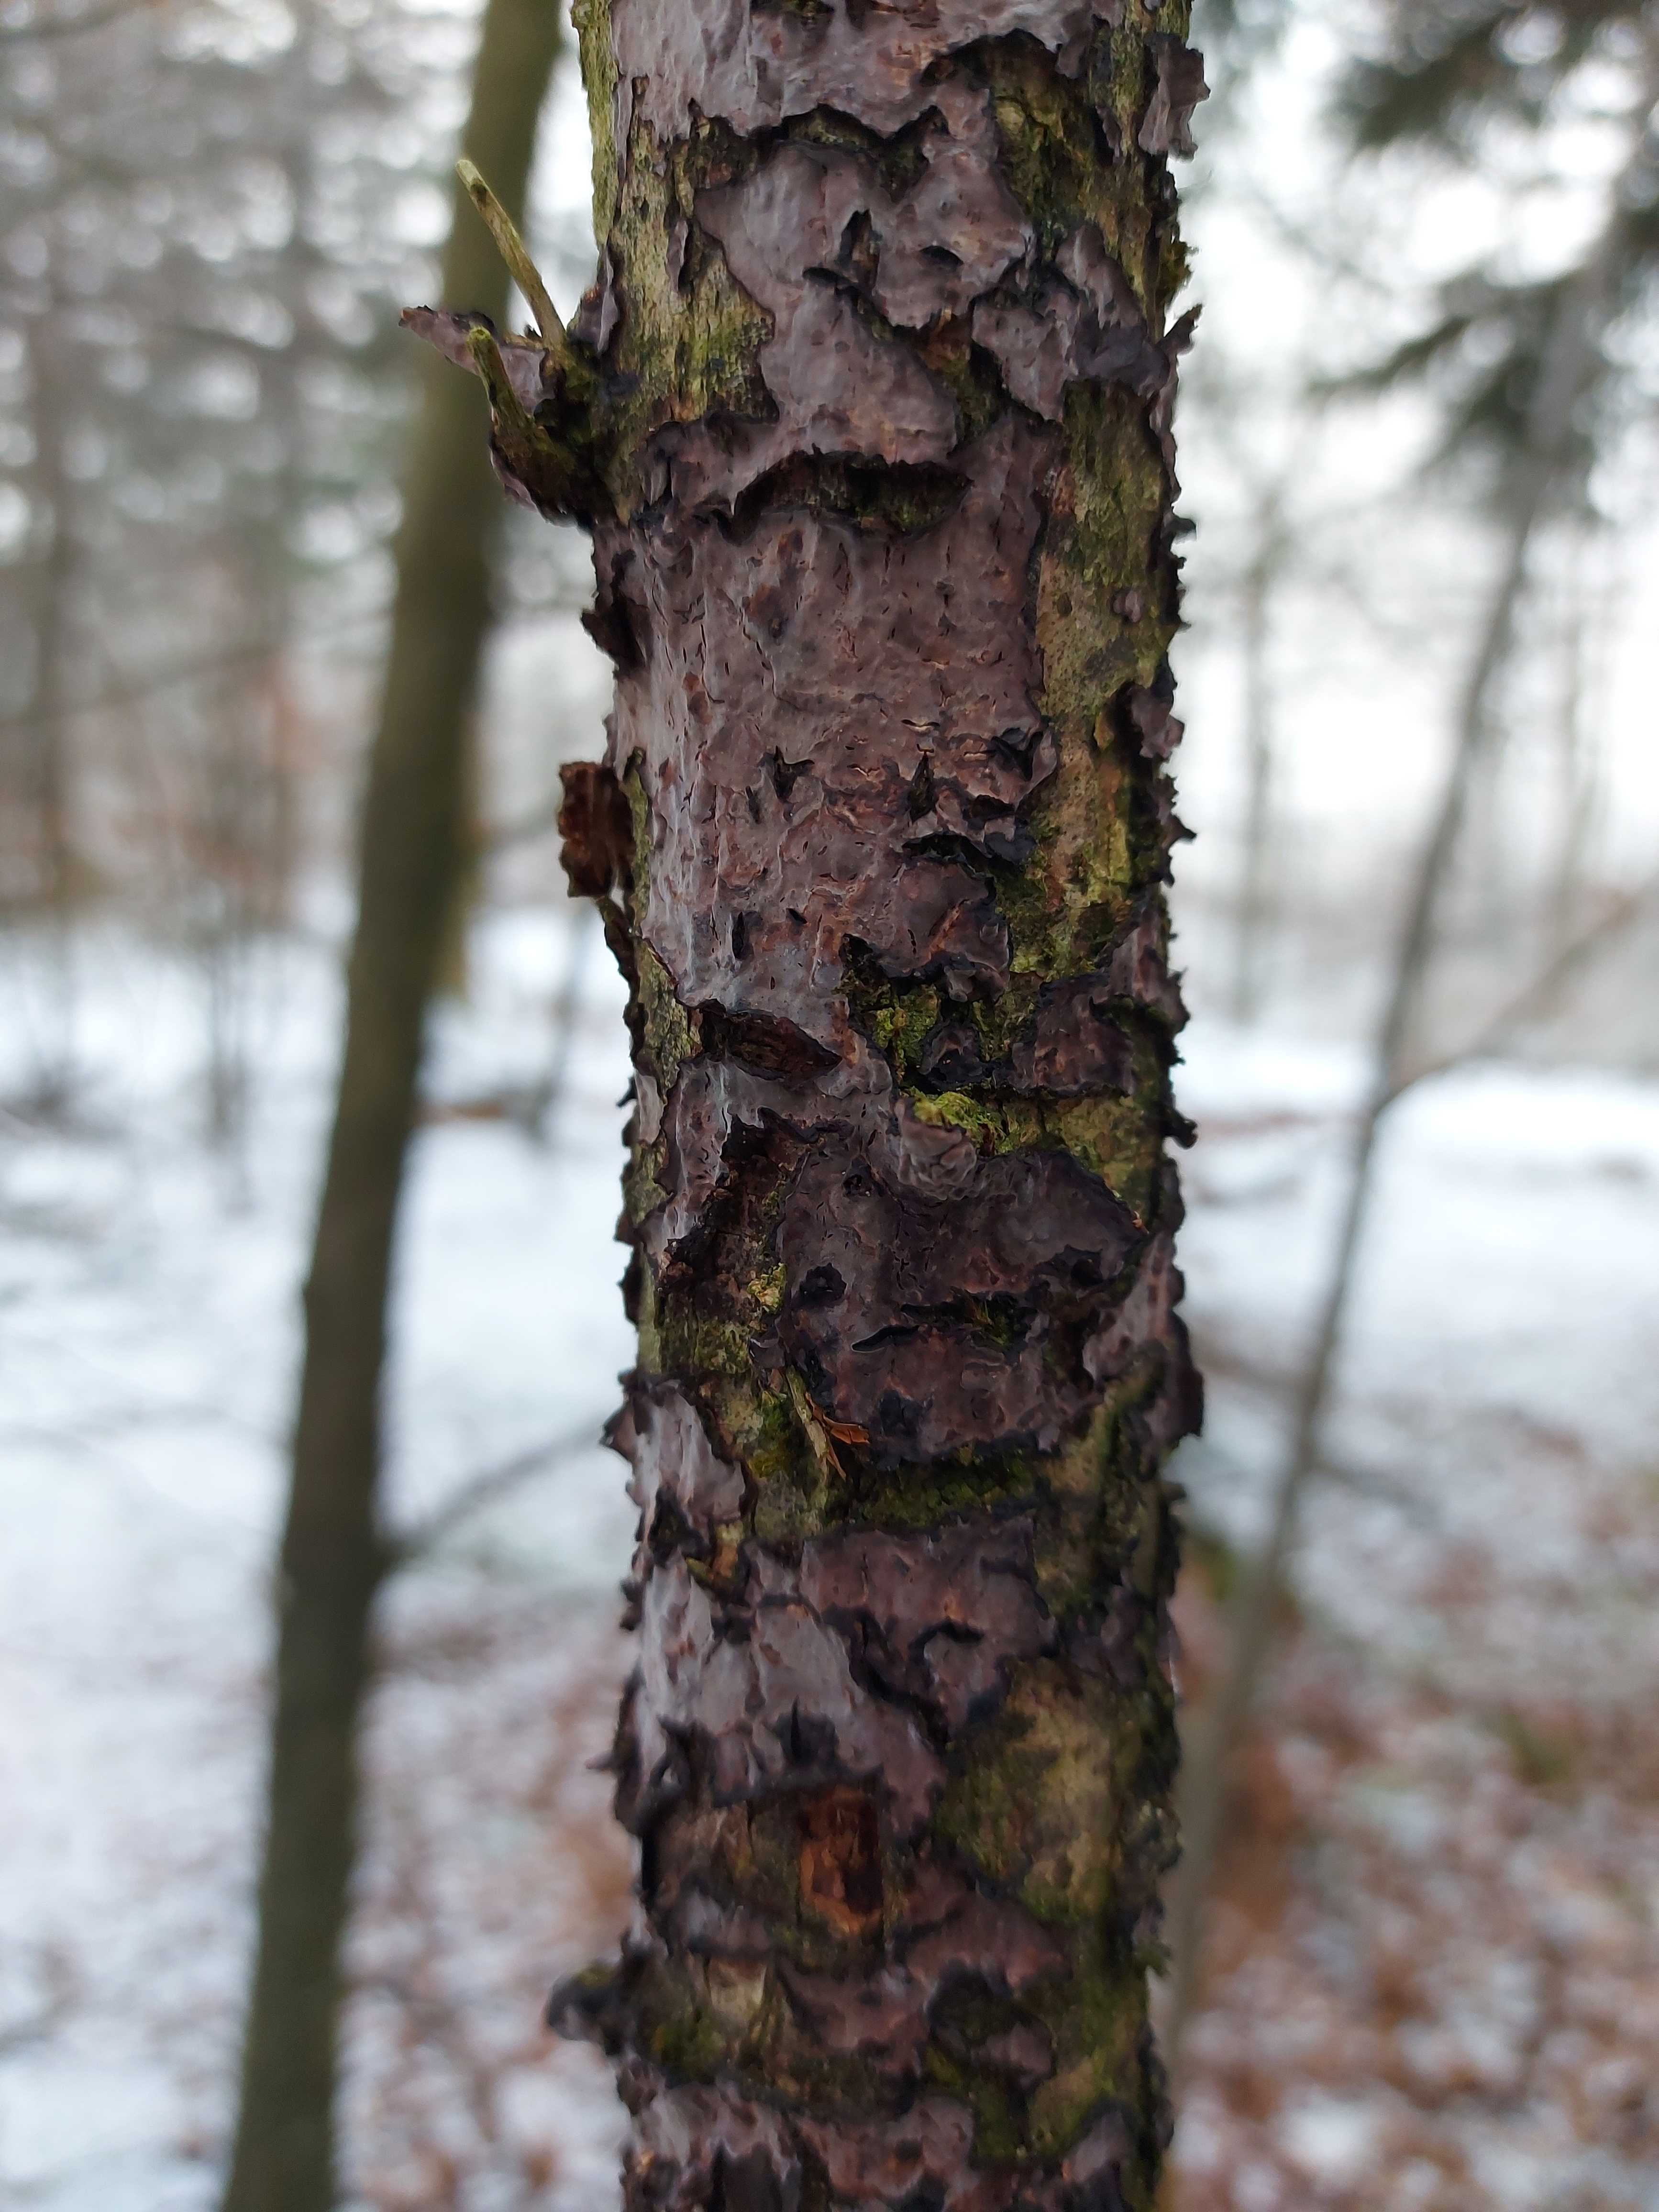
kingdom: Fungi
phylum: Basidiomycota
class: Agaricomycetes
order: Russulales
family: Peniophoraceae
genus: Peniophora
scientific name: Peniophora quercina
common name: ege-voksskind
